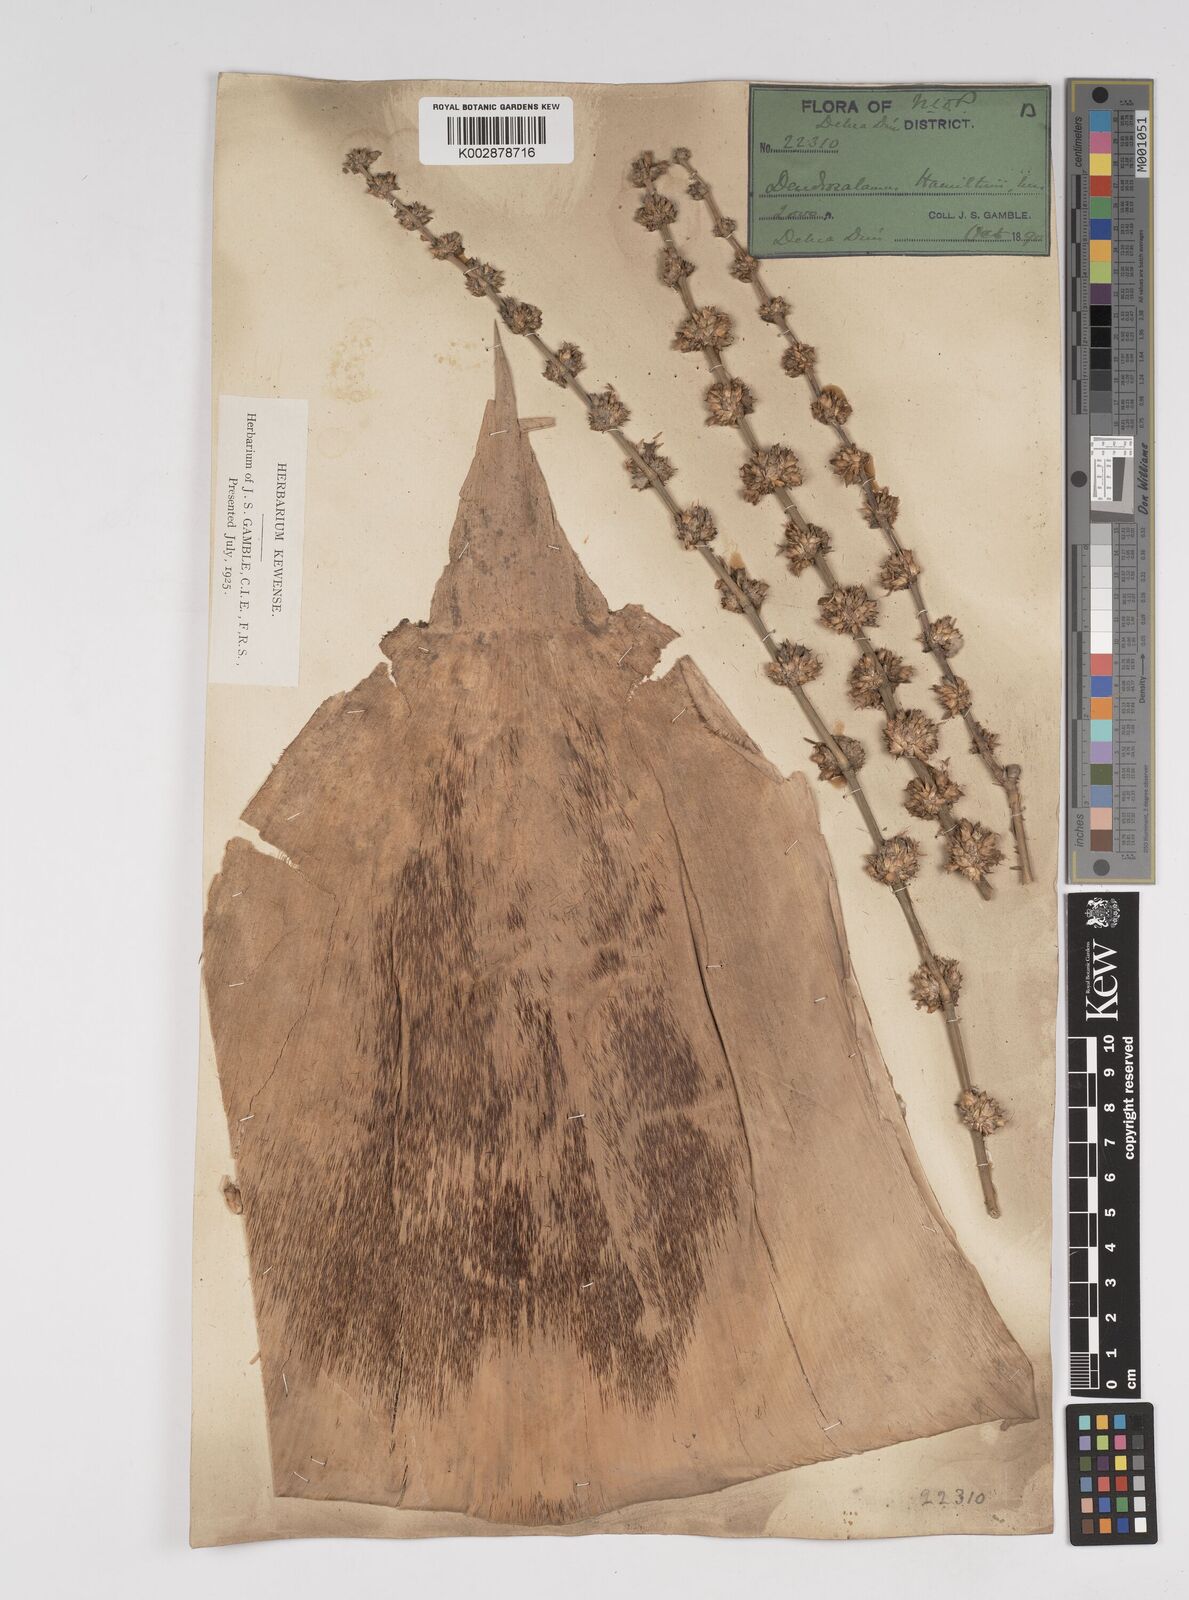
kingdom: Plantae
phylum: Tracheophyta
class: Liliopsida
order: Poales
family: Poaceae
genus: Dendrocalamus
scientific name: Dendrocalamus hamiltonii
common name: Tama bamboo
